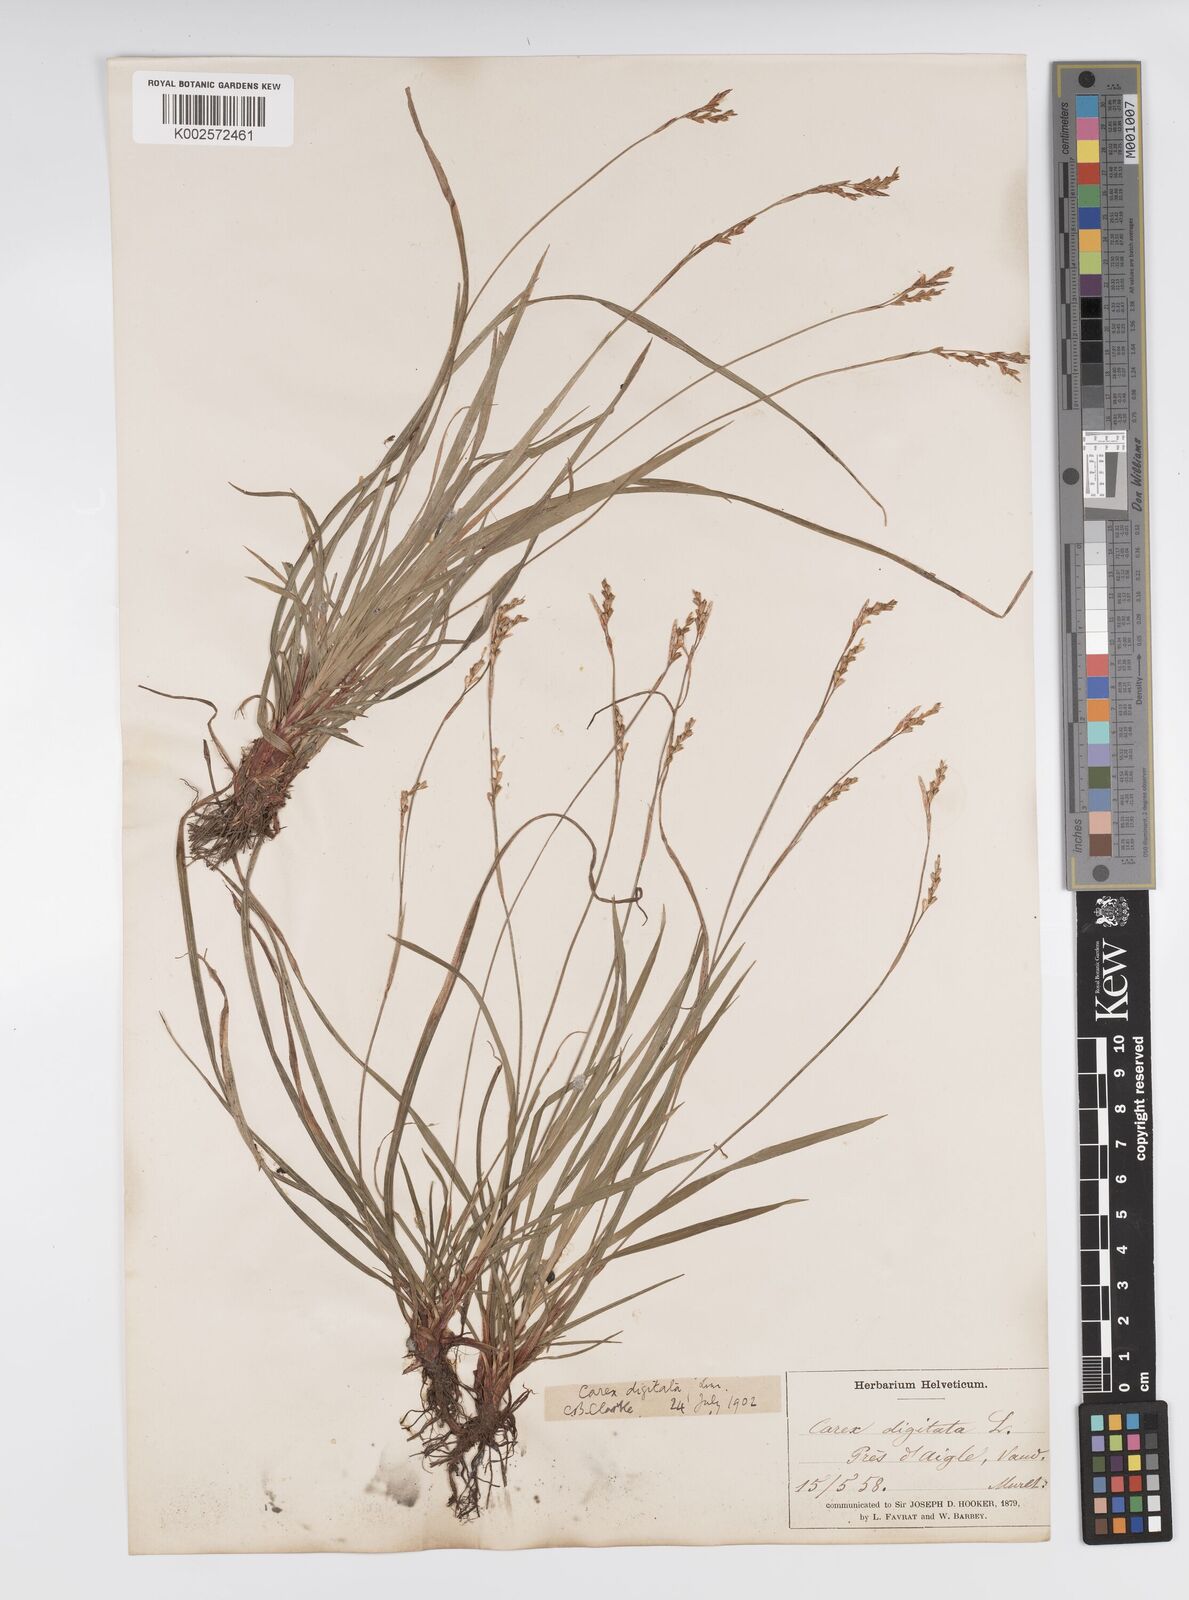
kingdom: Plantae
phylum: Tracheophyta
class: Liliopsida
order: Poales
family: Cyperaceae
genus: Carex
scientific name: Carex digitata
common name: Fingered sedge
